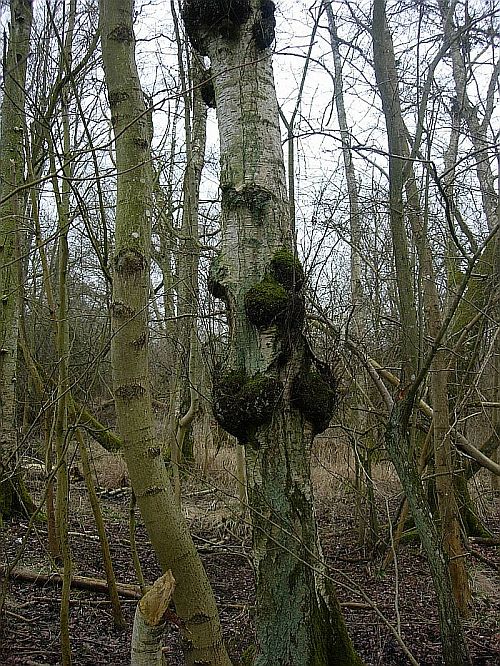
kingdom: Fungi
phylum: Basidiomycota
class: Agaricomycetes
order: Hymenochaetales
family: Hymenochaetaceae
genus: Inonotus
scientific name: Inonotus obliquus
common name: birke-spejlporesvamp
